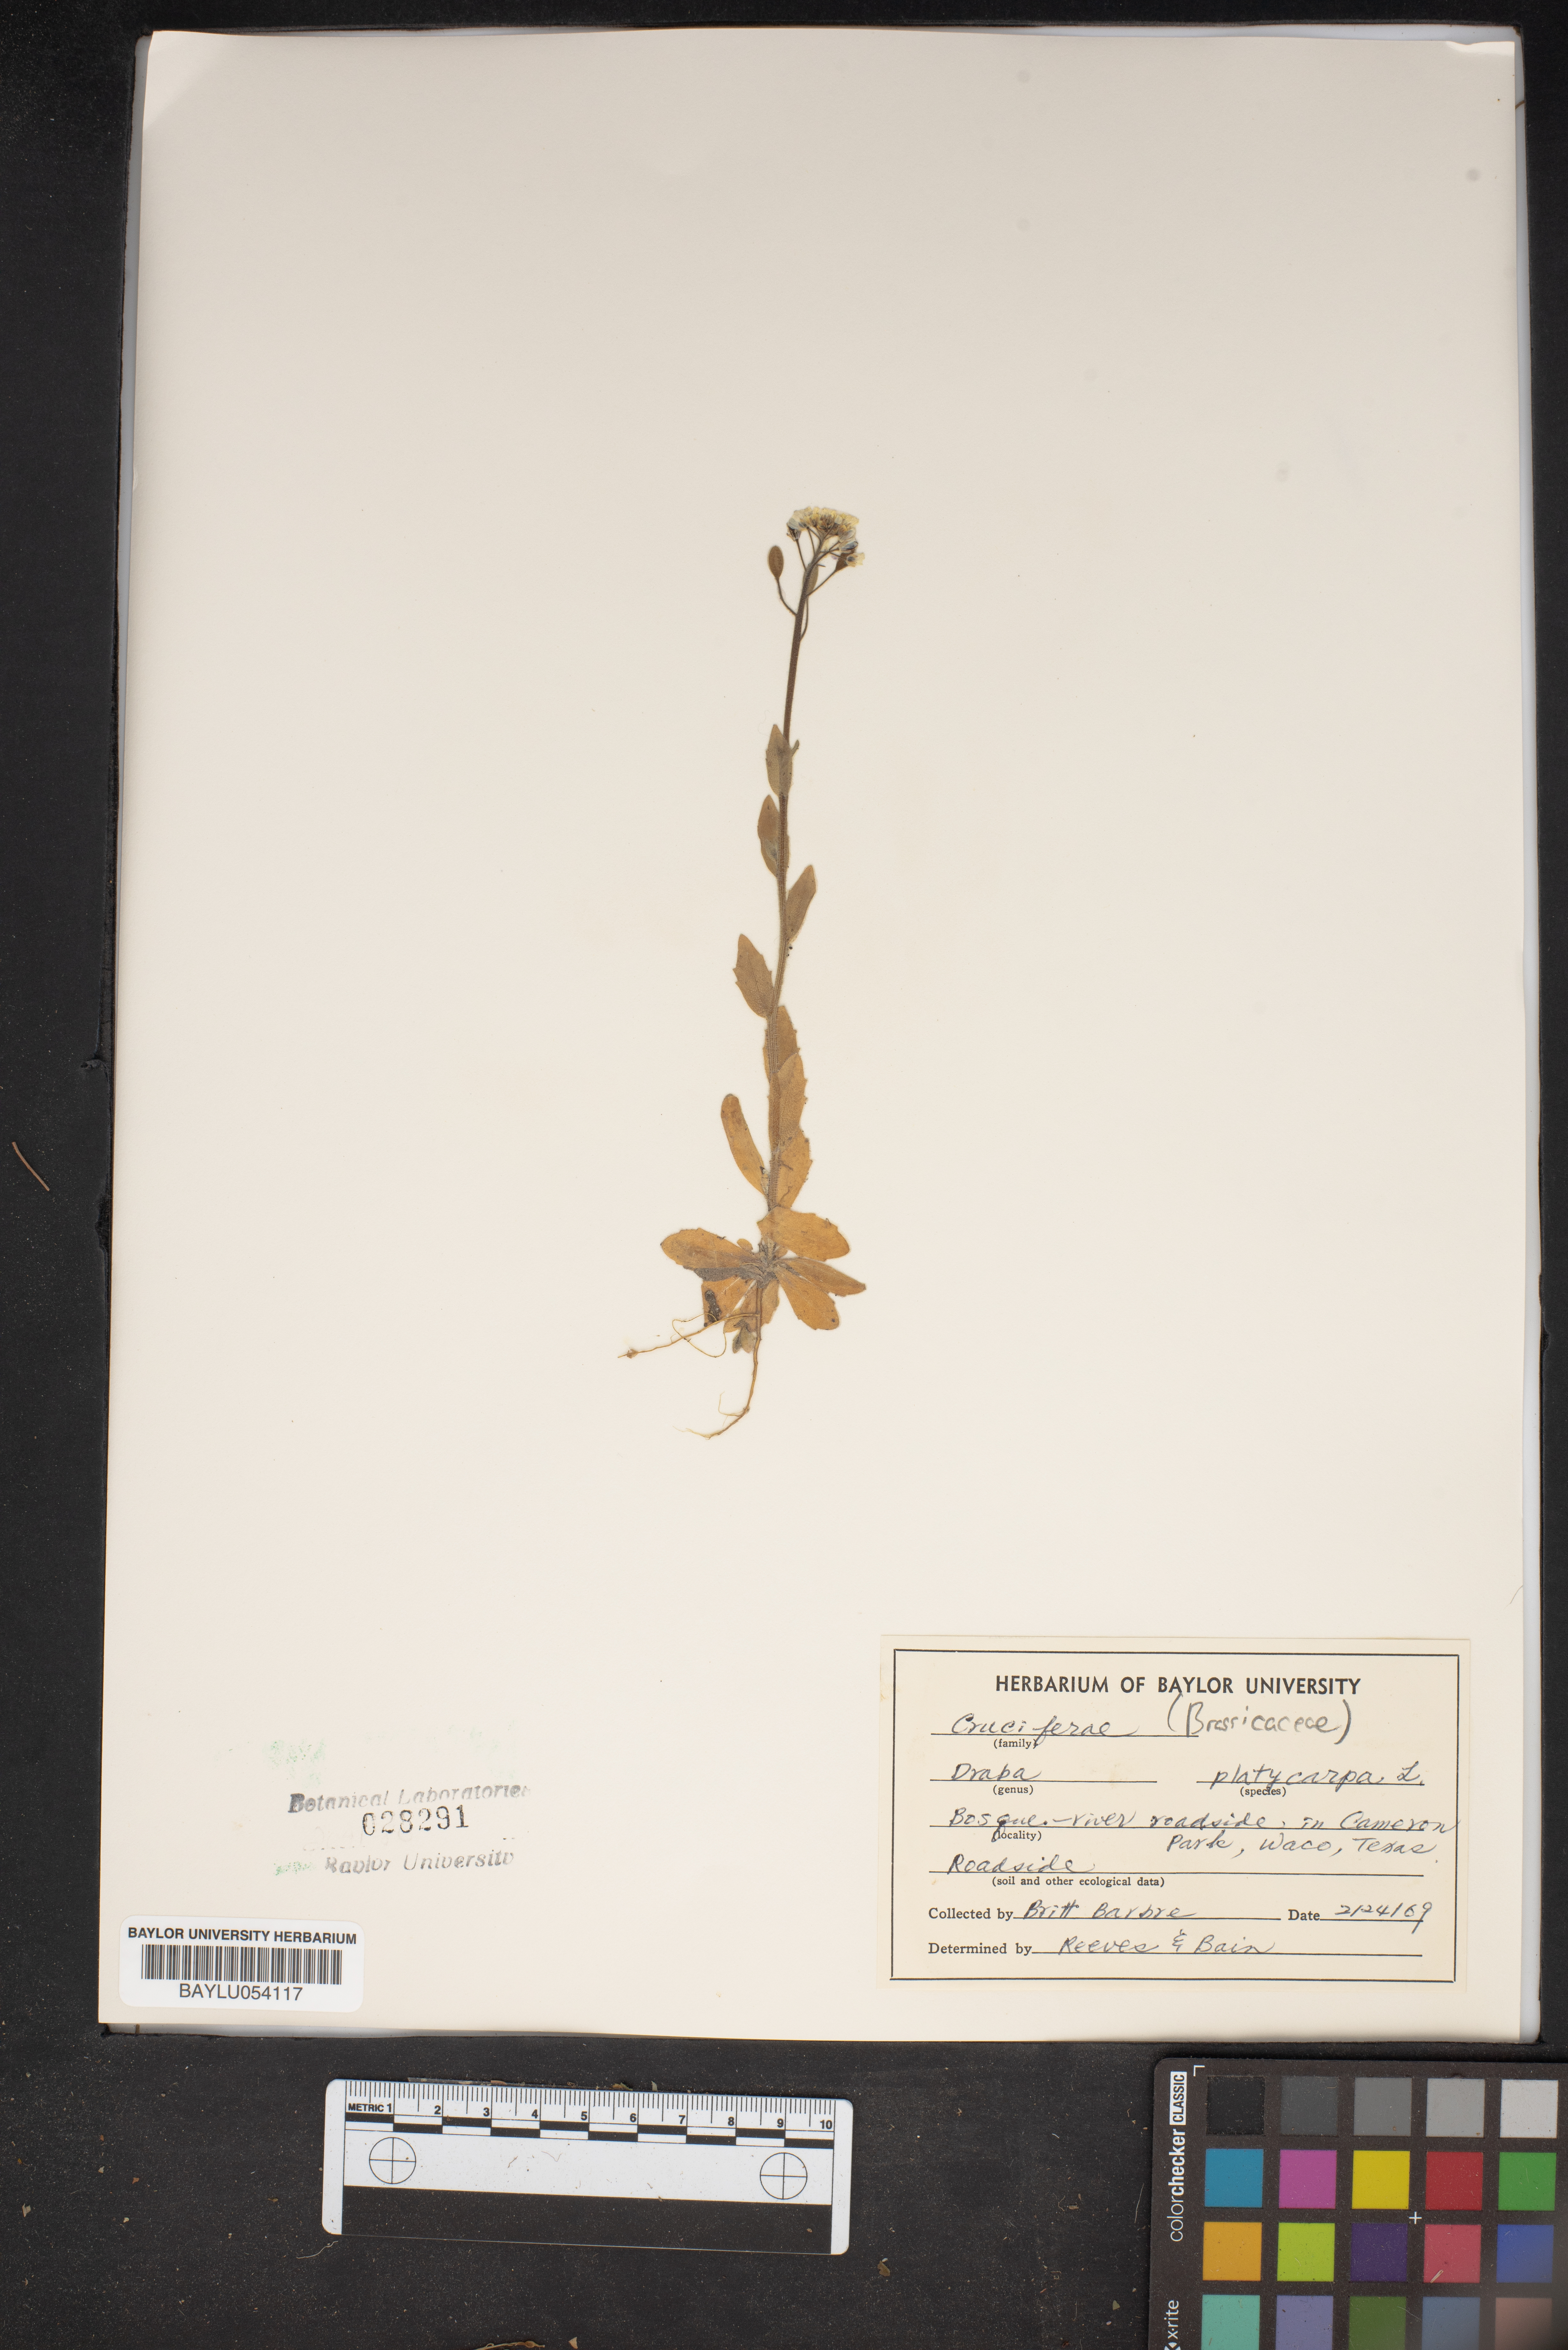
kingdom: Plantae
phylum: Tracheophyta
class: Magnoliopsida
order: Brassicales
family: Brassicaceae
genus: Tomostima
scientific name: Tomostima platycarpa
